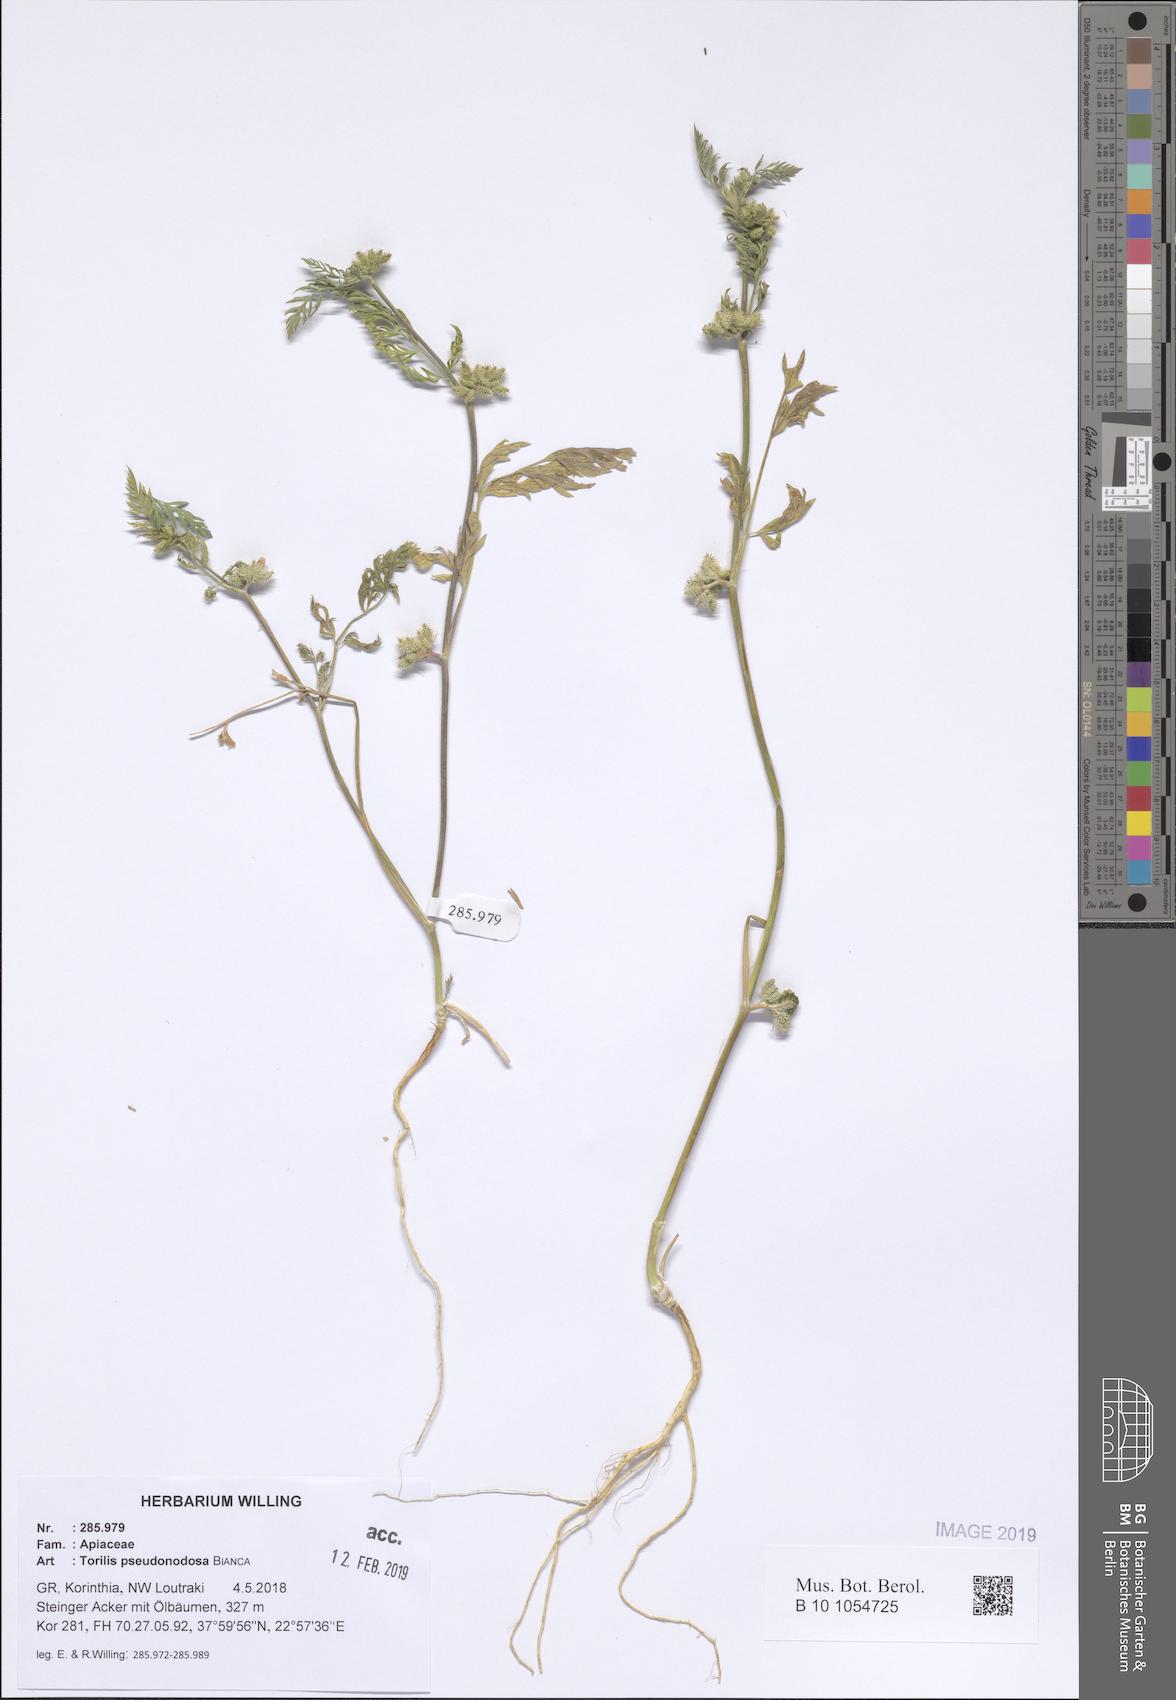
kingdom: Plantae
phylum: Tracheophyta
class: Magnoliopsida
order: Apiales
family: Apiaceae
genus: Torilis
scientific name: Torilis pseudonodosa
